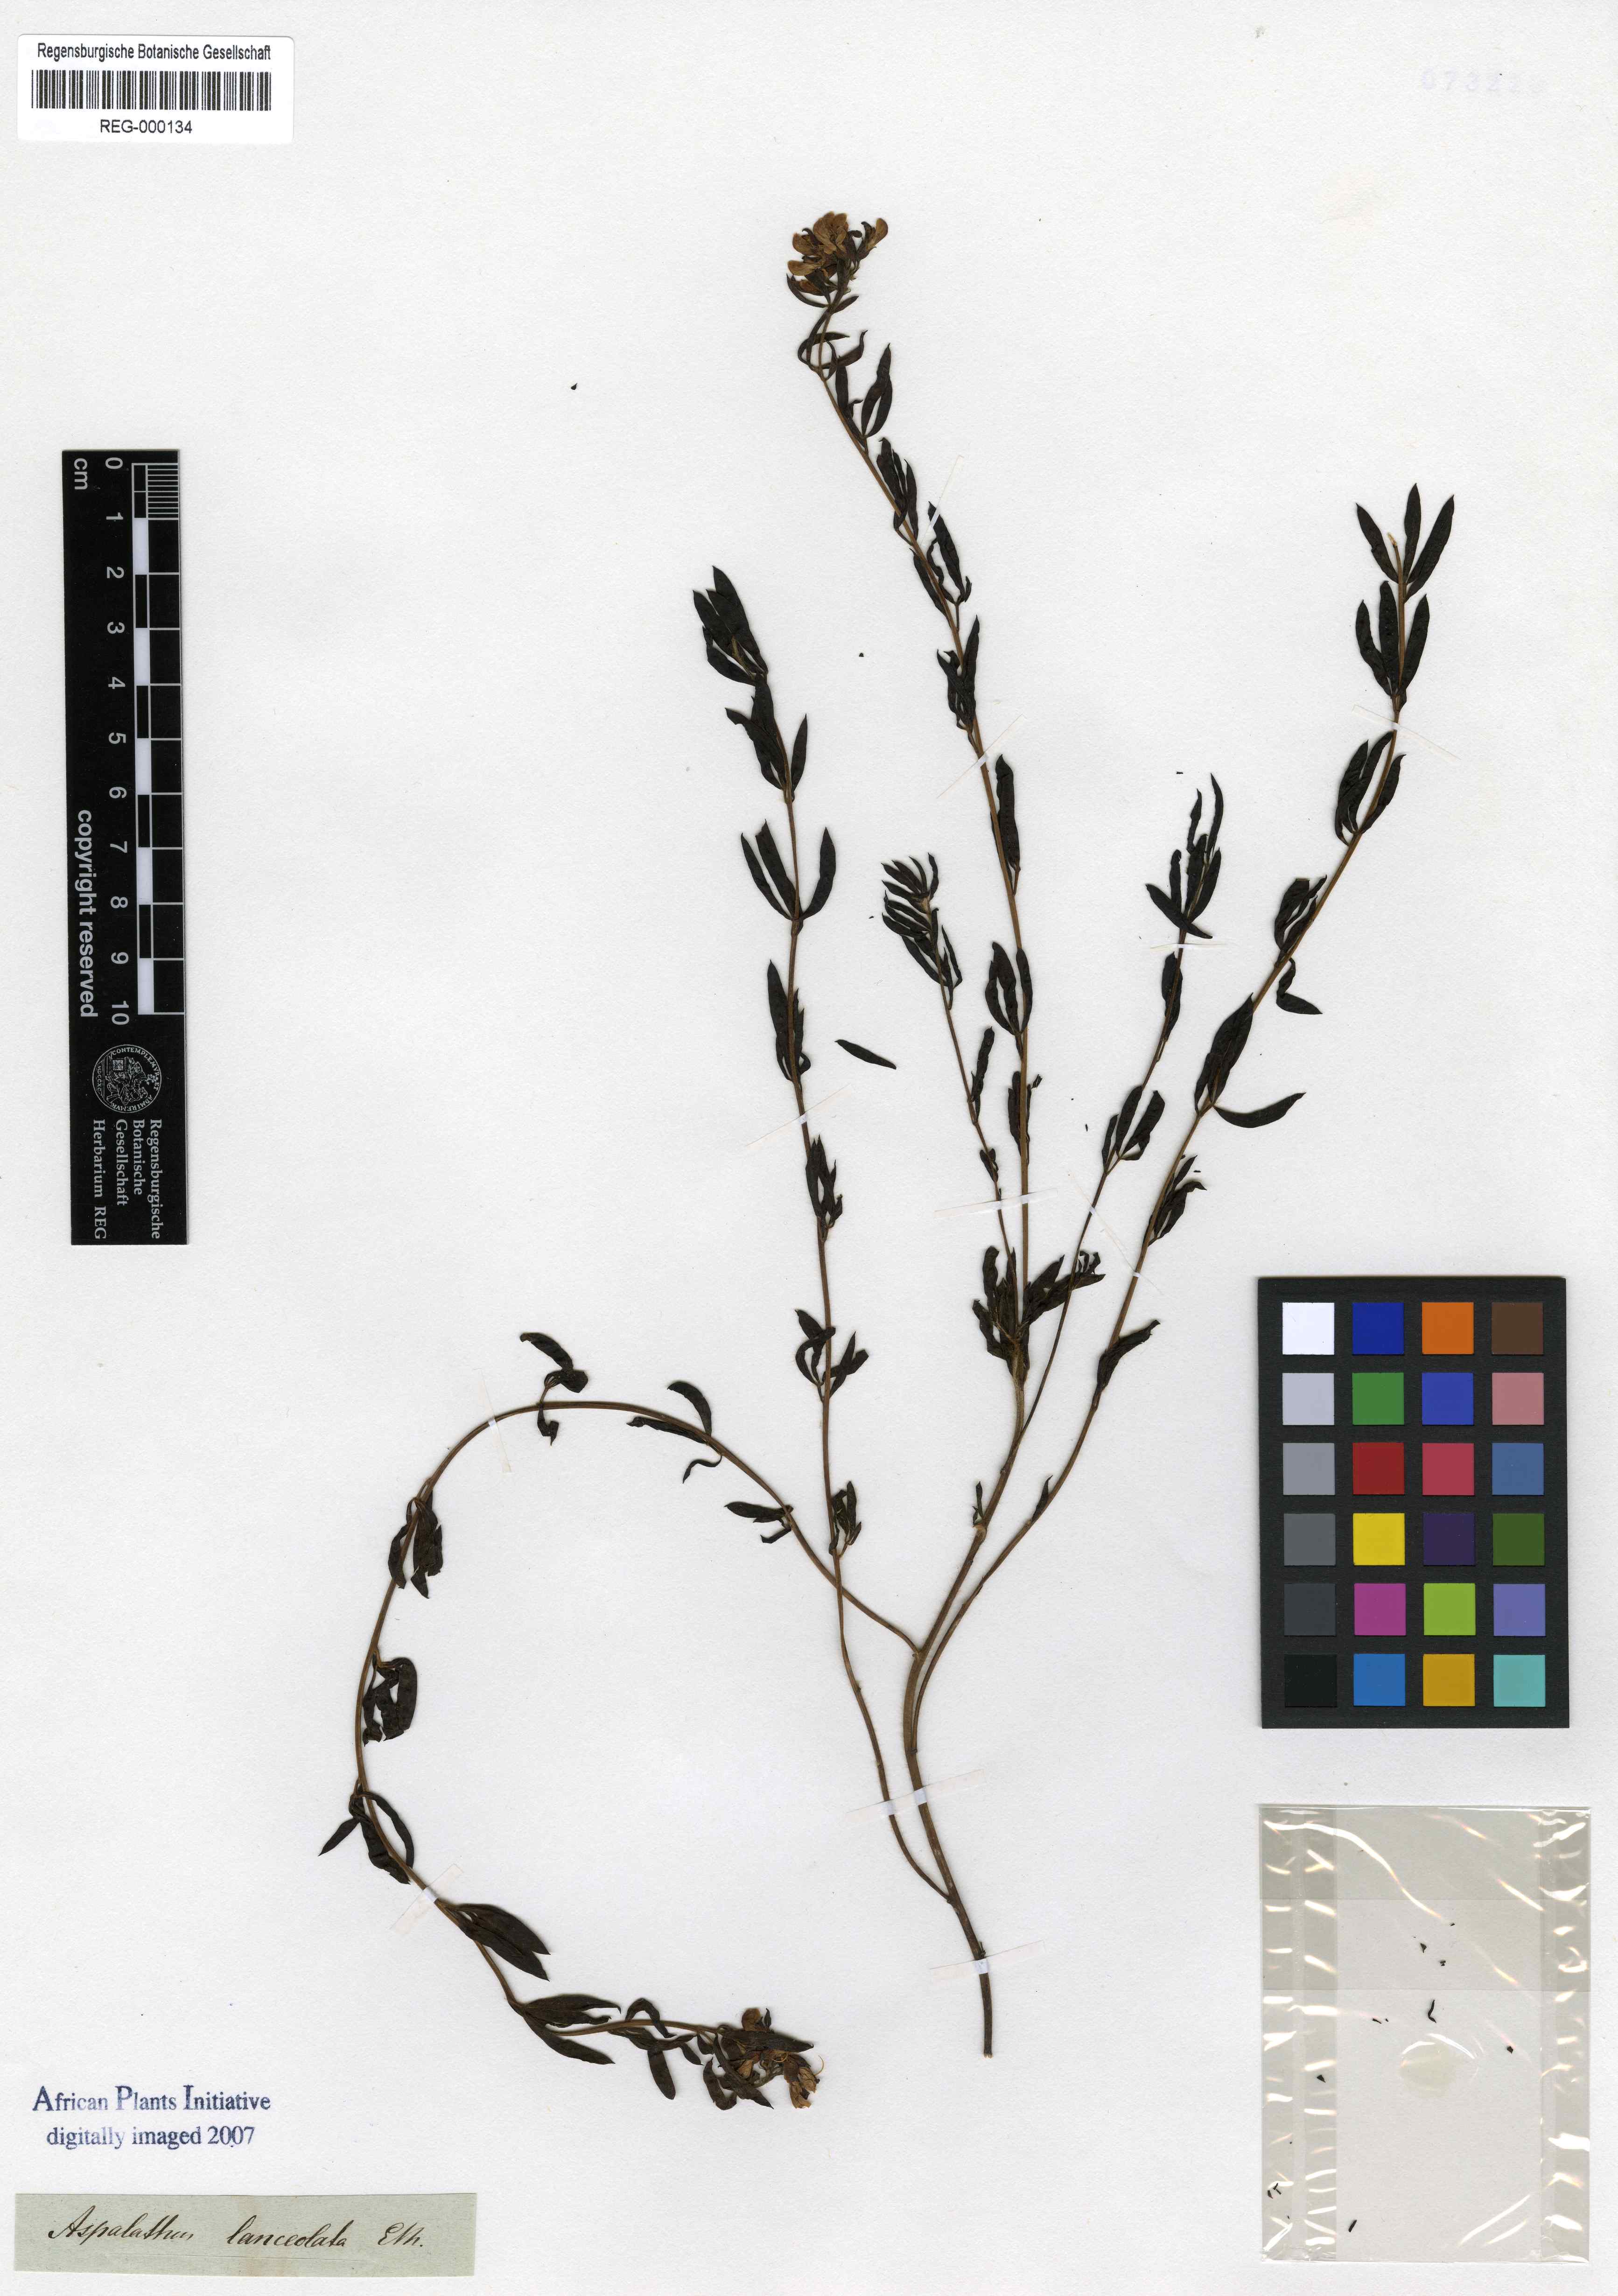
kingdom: Plantae
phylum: Tracheophyta
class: Magnoliopsida
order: Fabales
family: Fabaceae
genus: Leobordea
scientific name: Leobordea lanceolata
